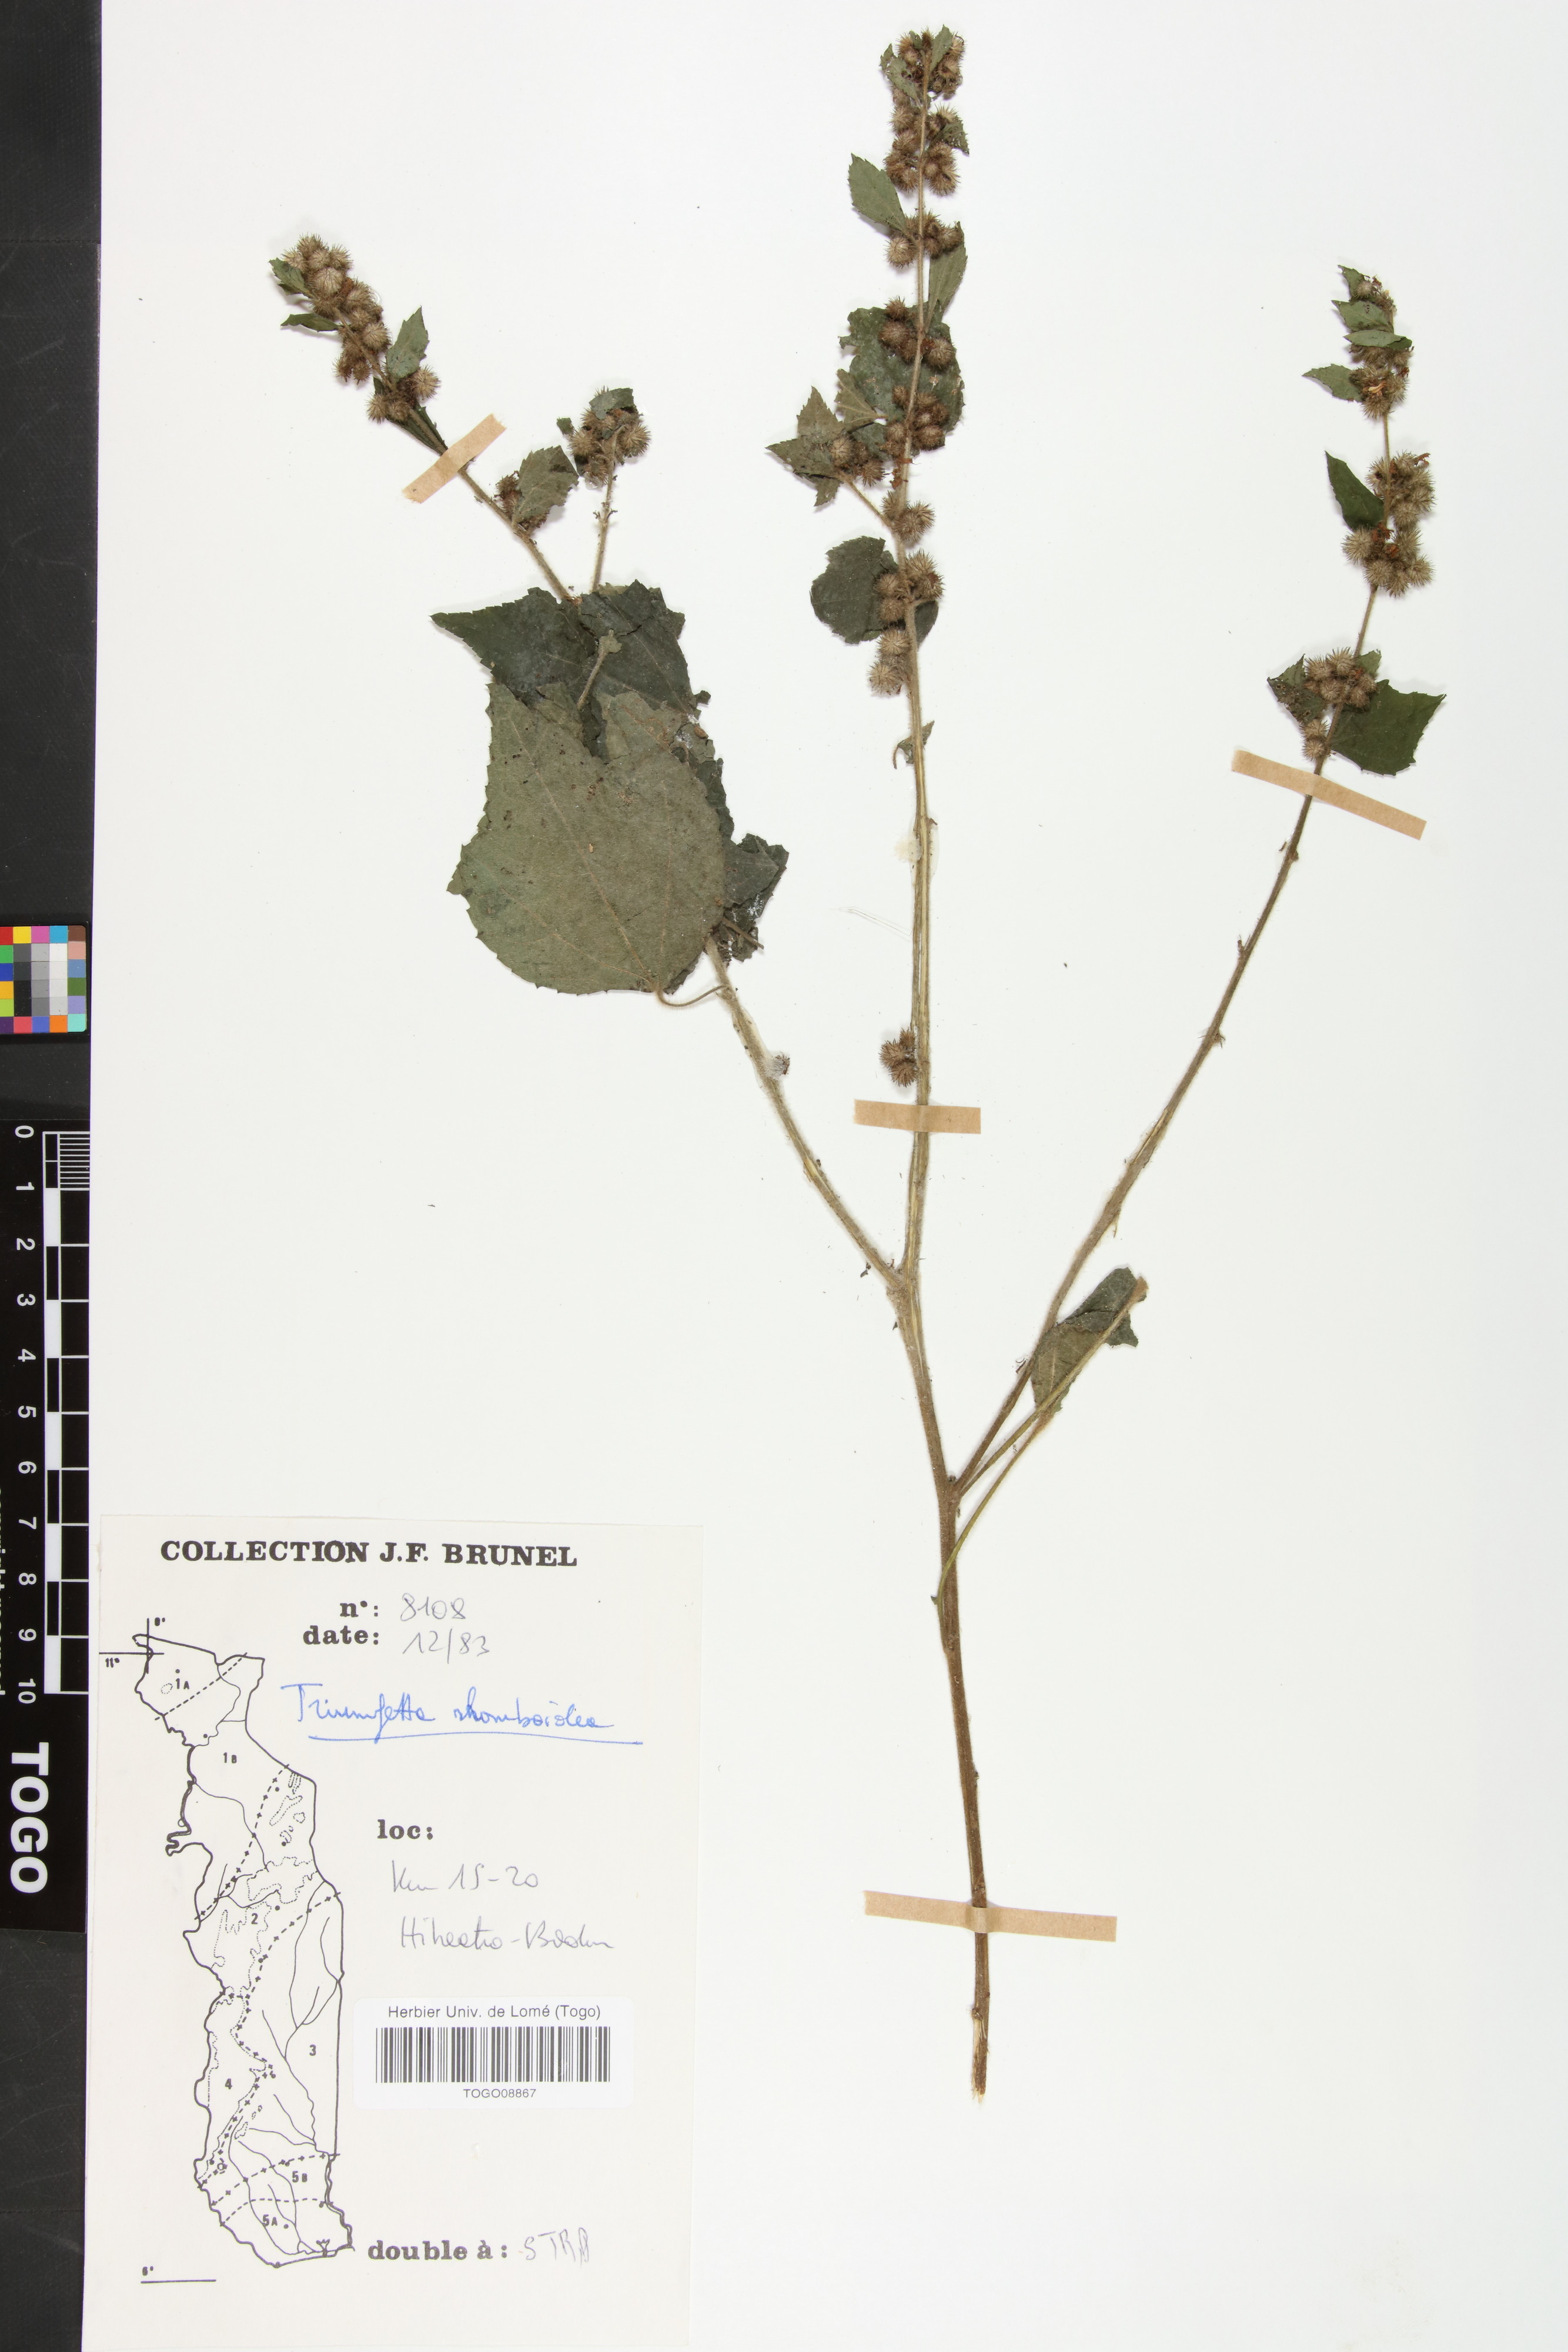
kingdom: Plantae
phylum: Tracheophyta
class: Magnoliopsida
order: Malvales
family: Malvaceae
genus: Triumfetta
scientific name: Triumfetta rhomboidea
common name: Diamond burbark
